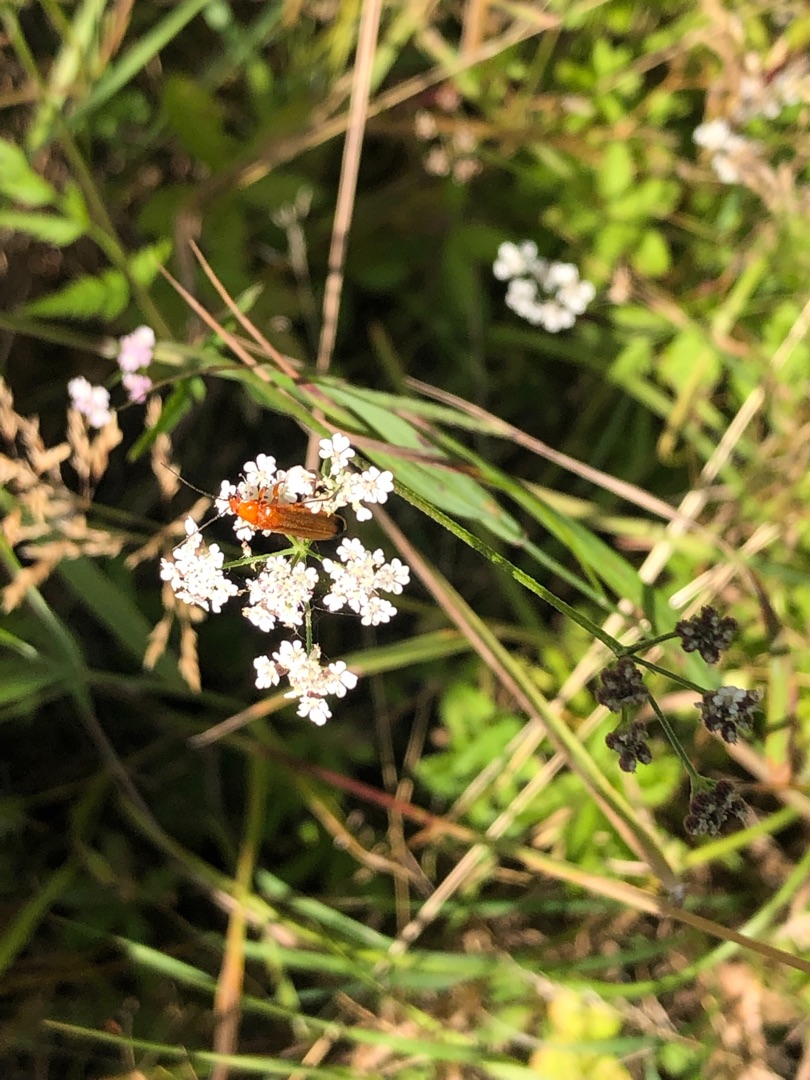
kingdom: Animalia
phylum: Arthropoda
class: Insecta
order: Coleoptera
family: Cantharidae
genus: Rhagonycha
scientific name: Rhagonycha fulva
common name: Præstebille
